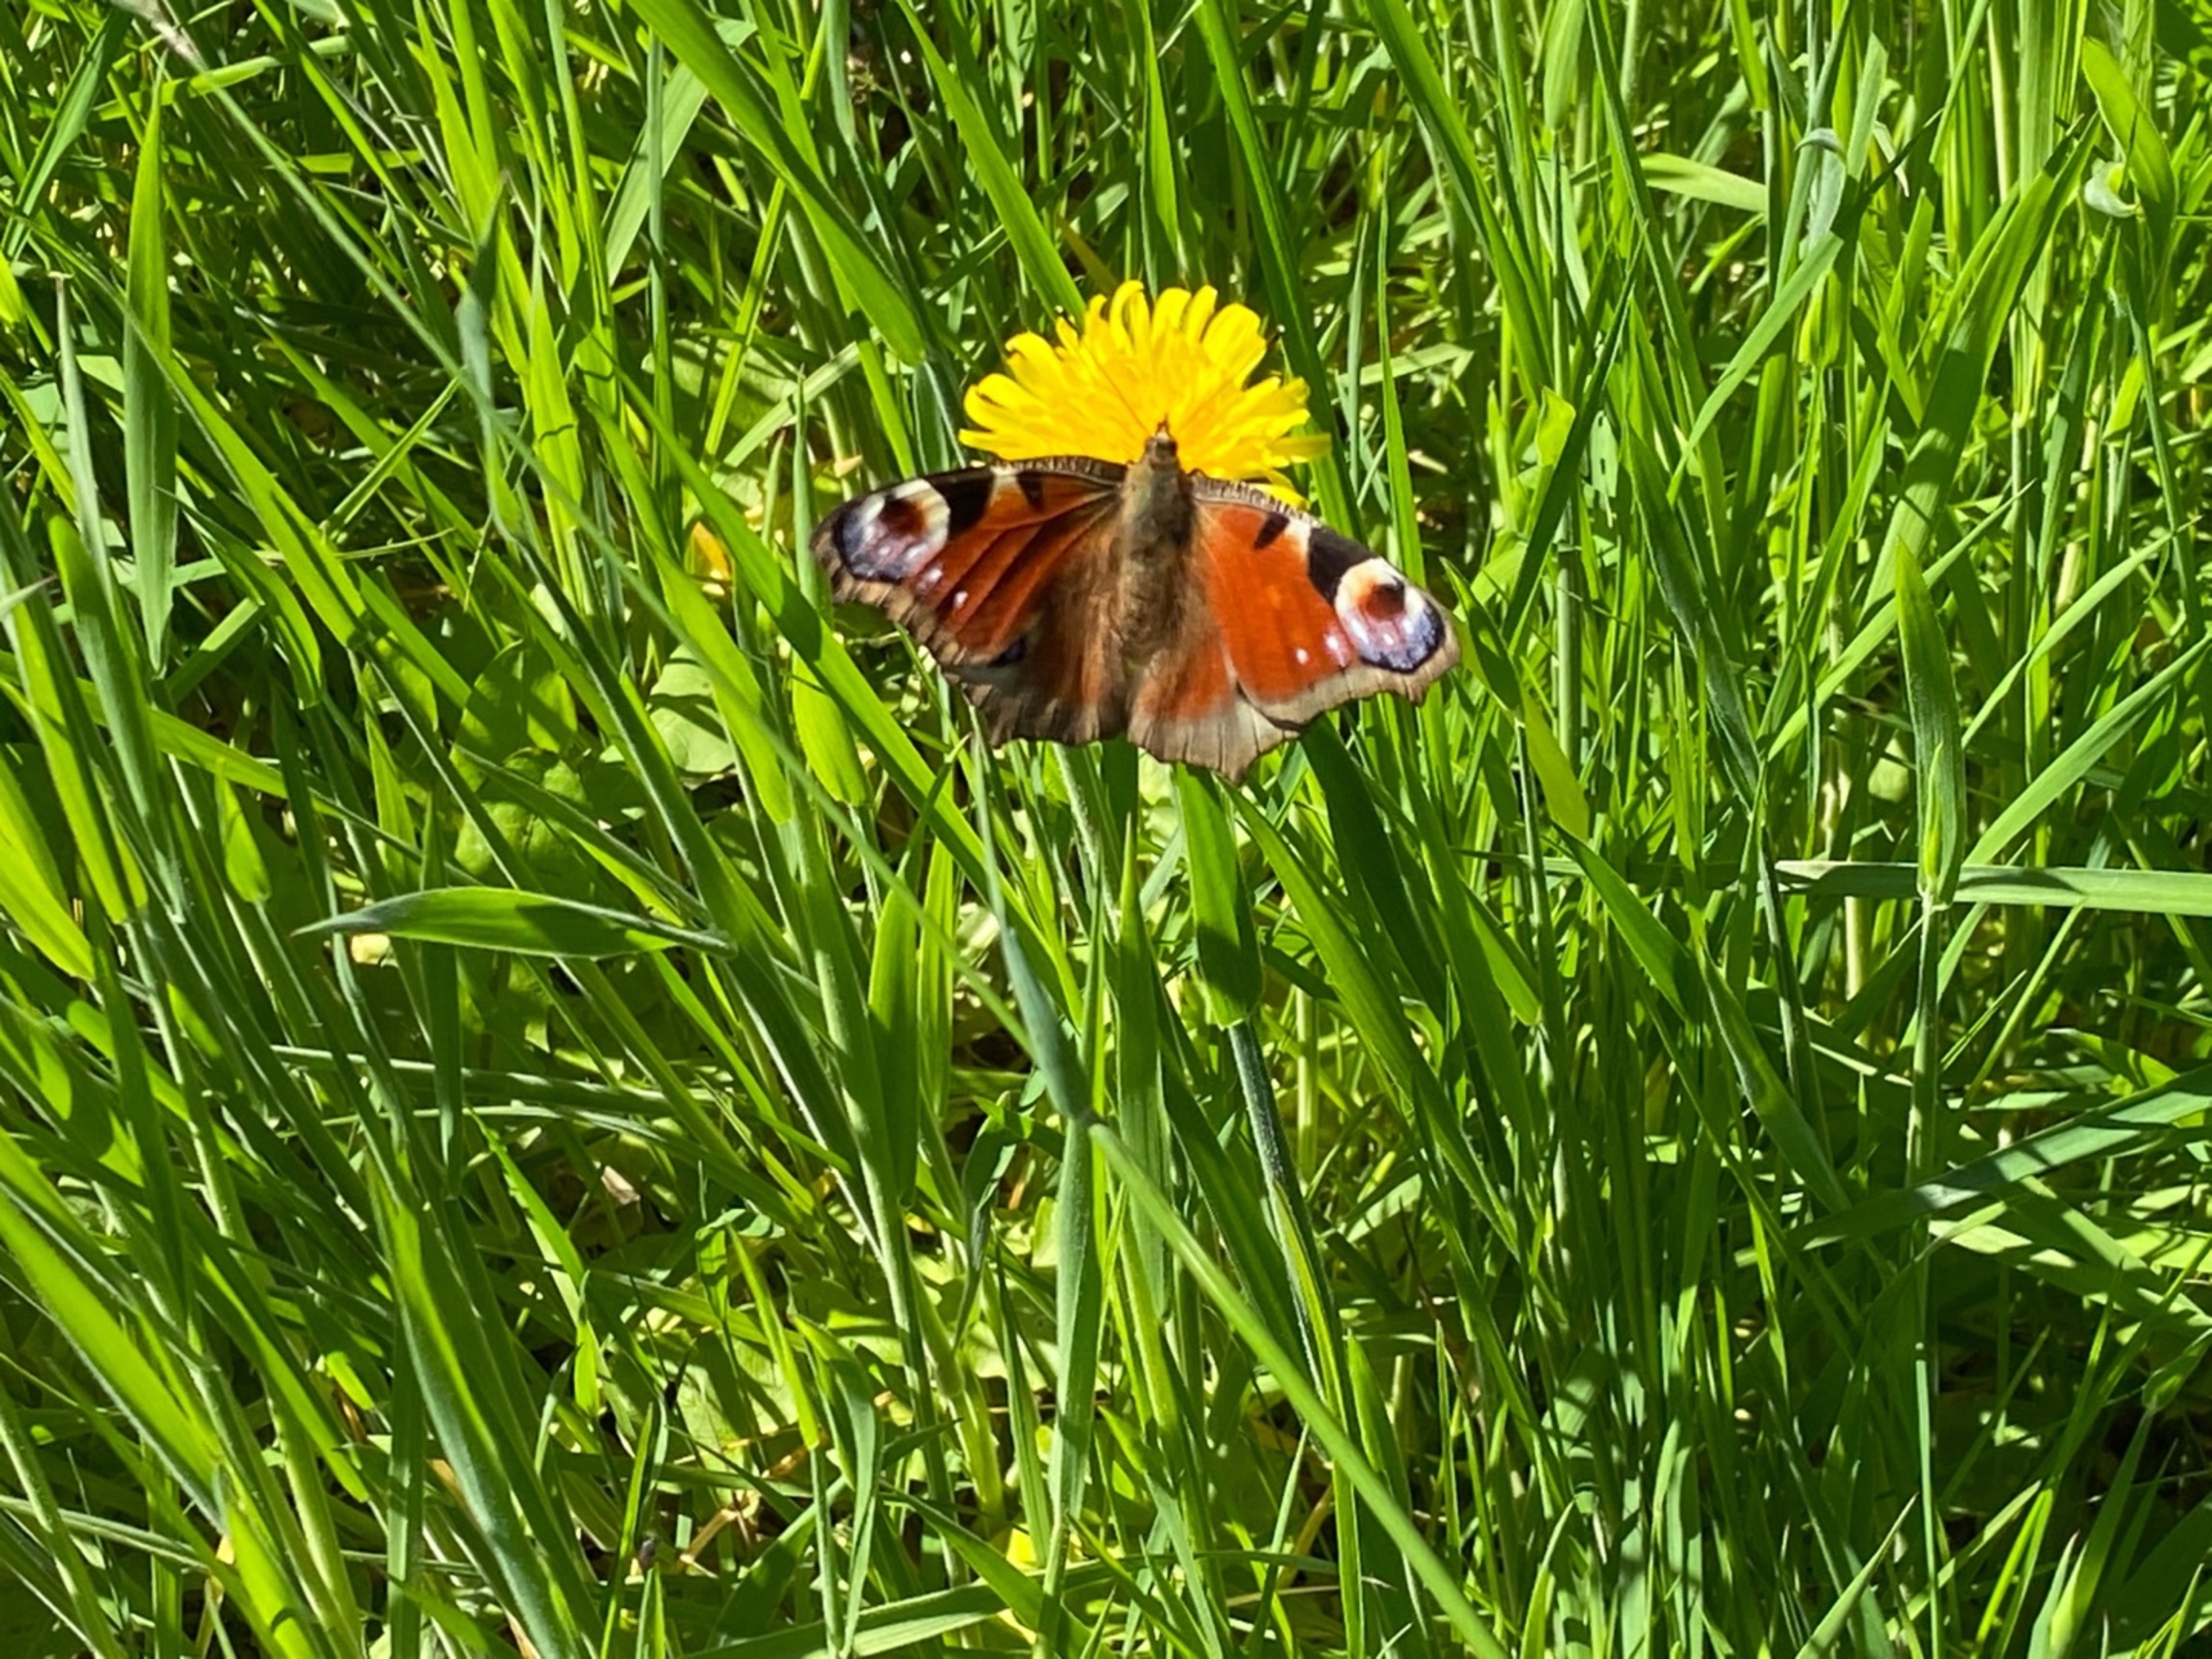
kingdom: Animalia
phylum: Arthropoda
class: Insecta
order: Lepidoptera
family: Nymphalidae
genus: Aglais
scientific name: Aglais io
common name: Dagpåfugleøje
